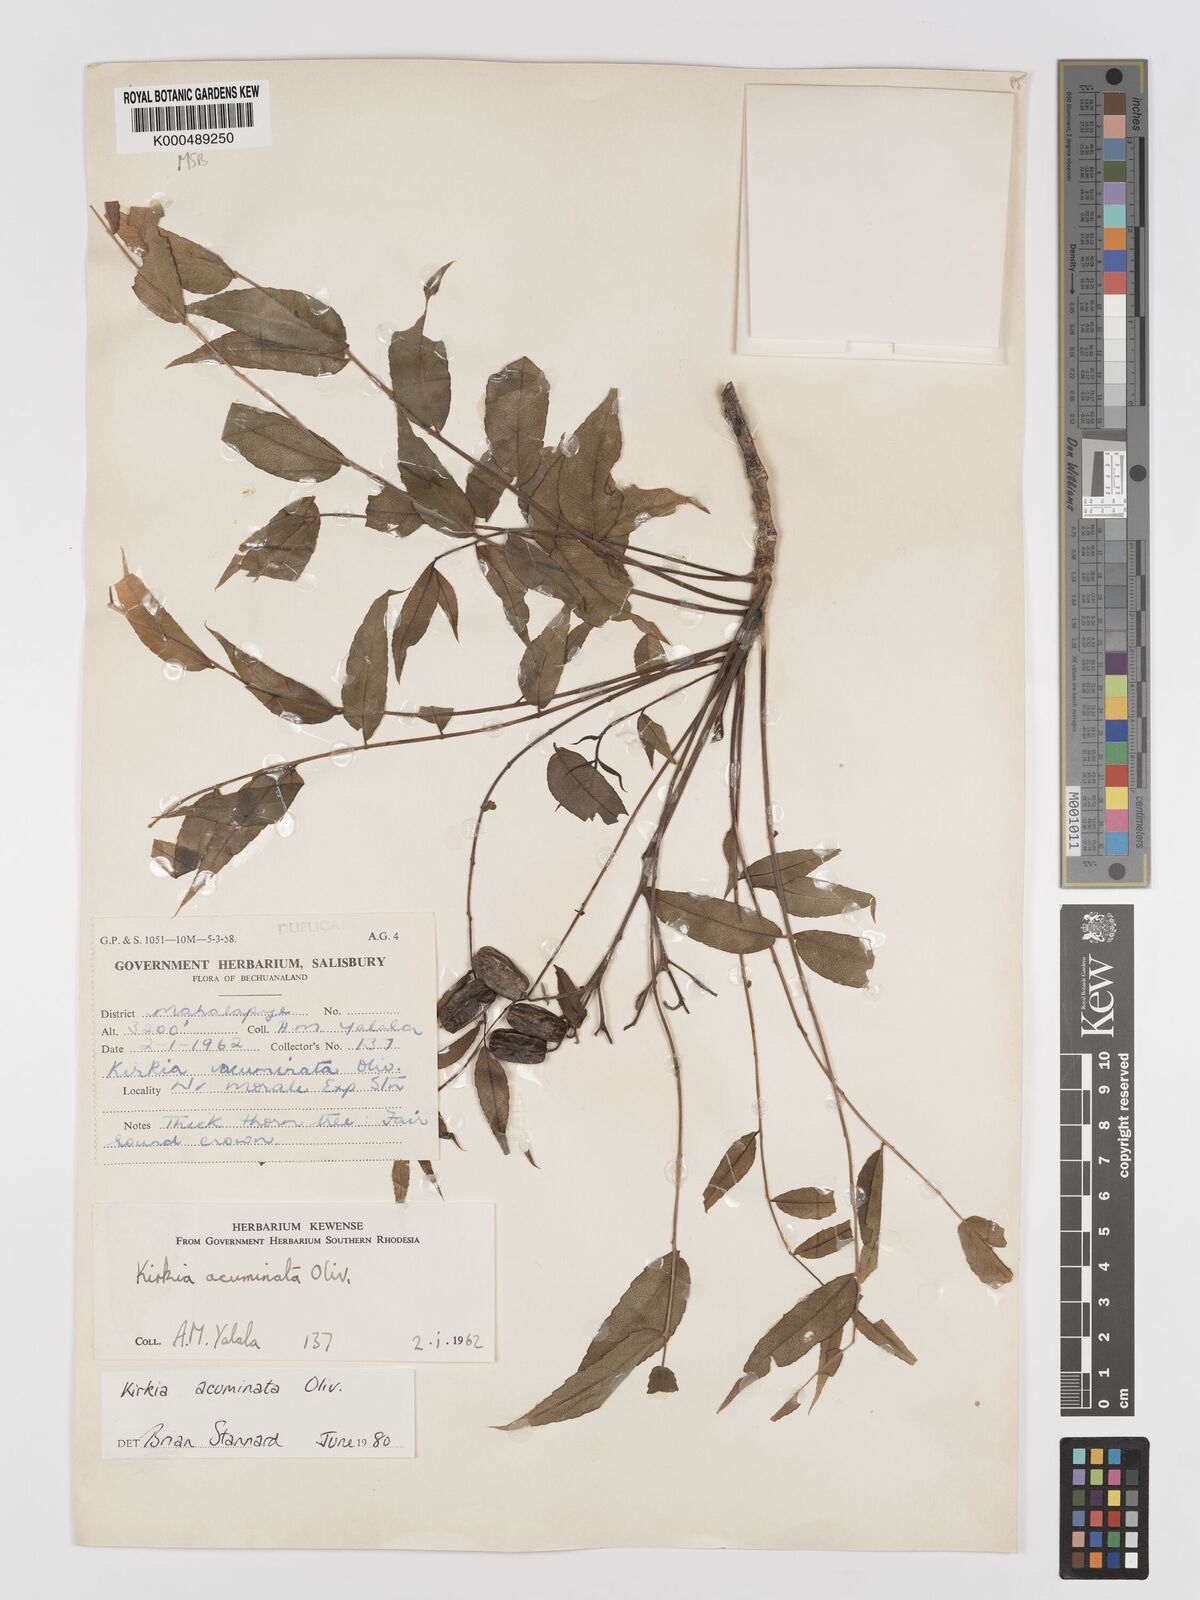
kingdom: Plantae
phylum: Tracheophyta
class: Magnoliopsida
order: Sapindales
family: Kirkiaceae
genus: Kirkia
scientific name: Kirkia acuminata
